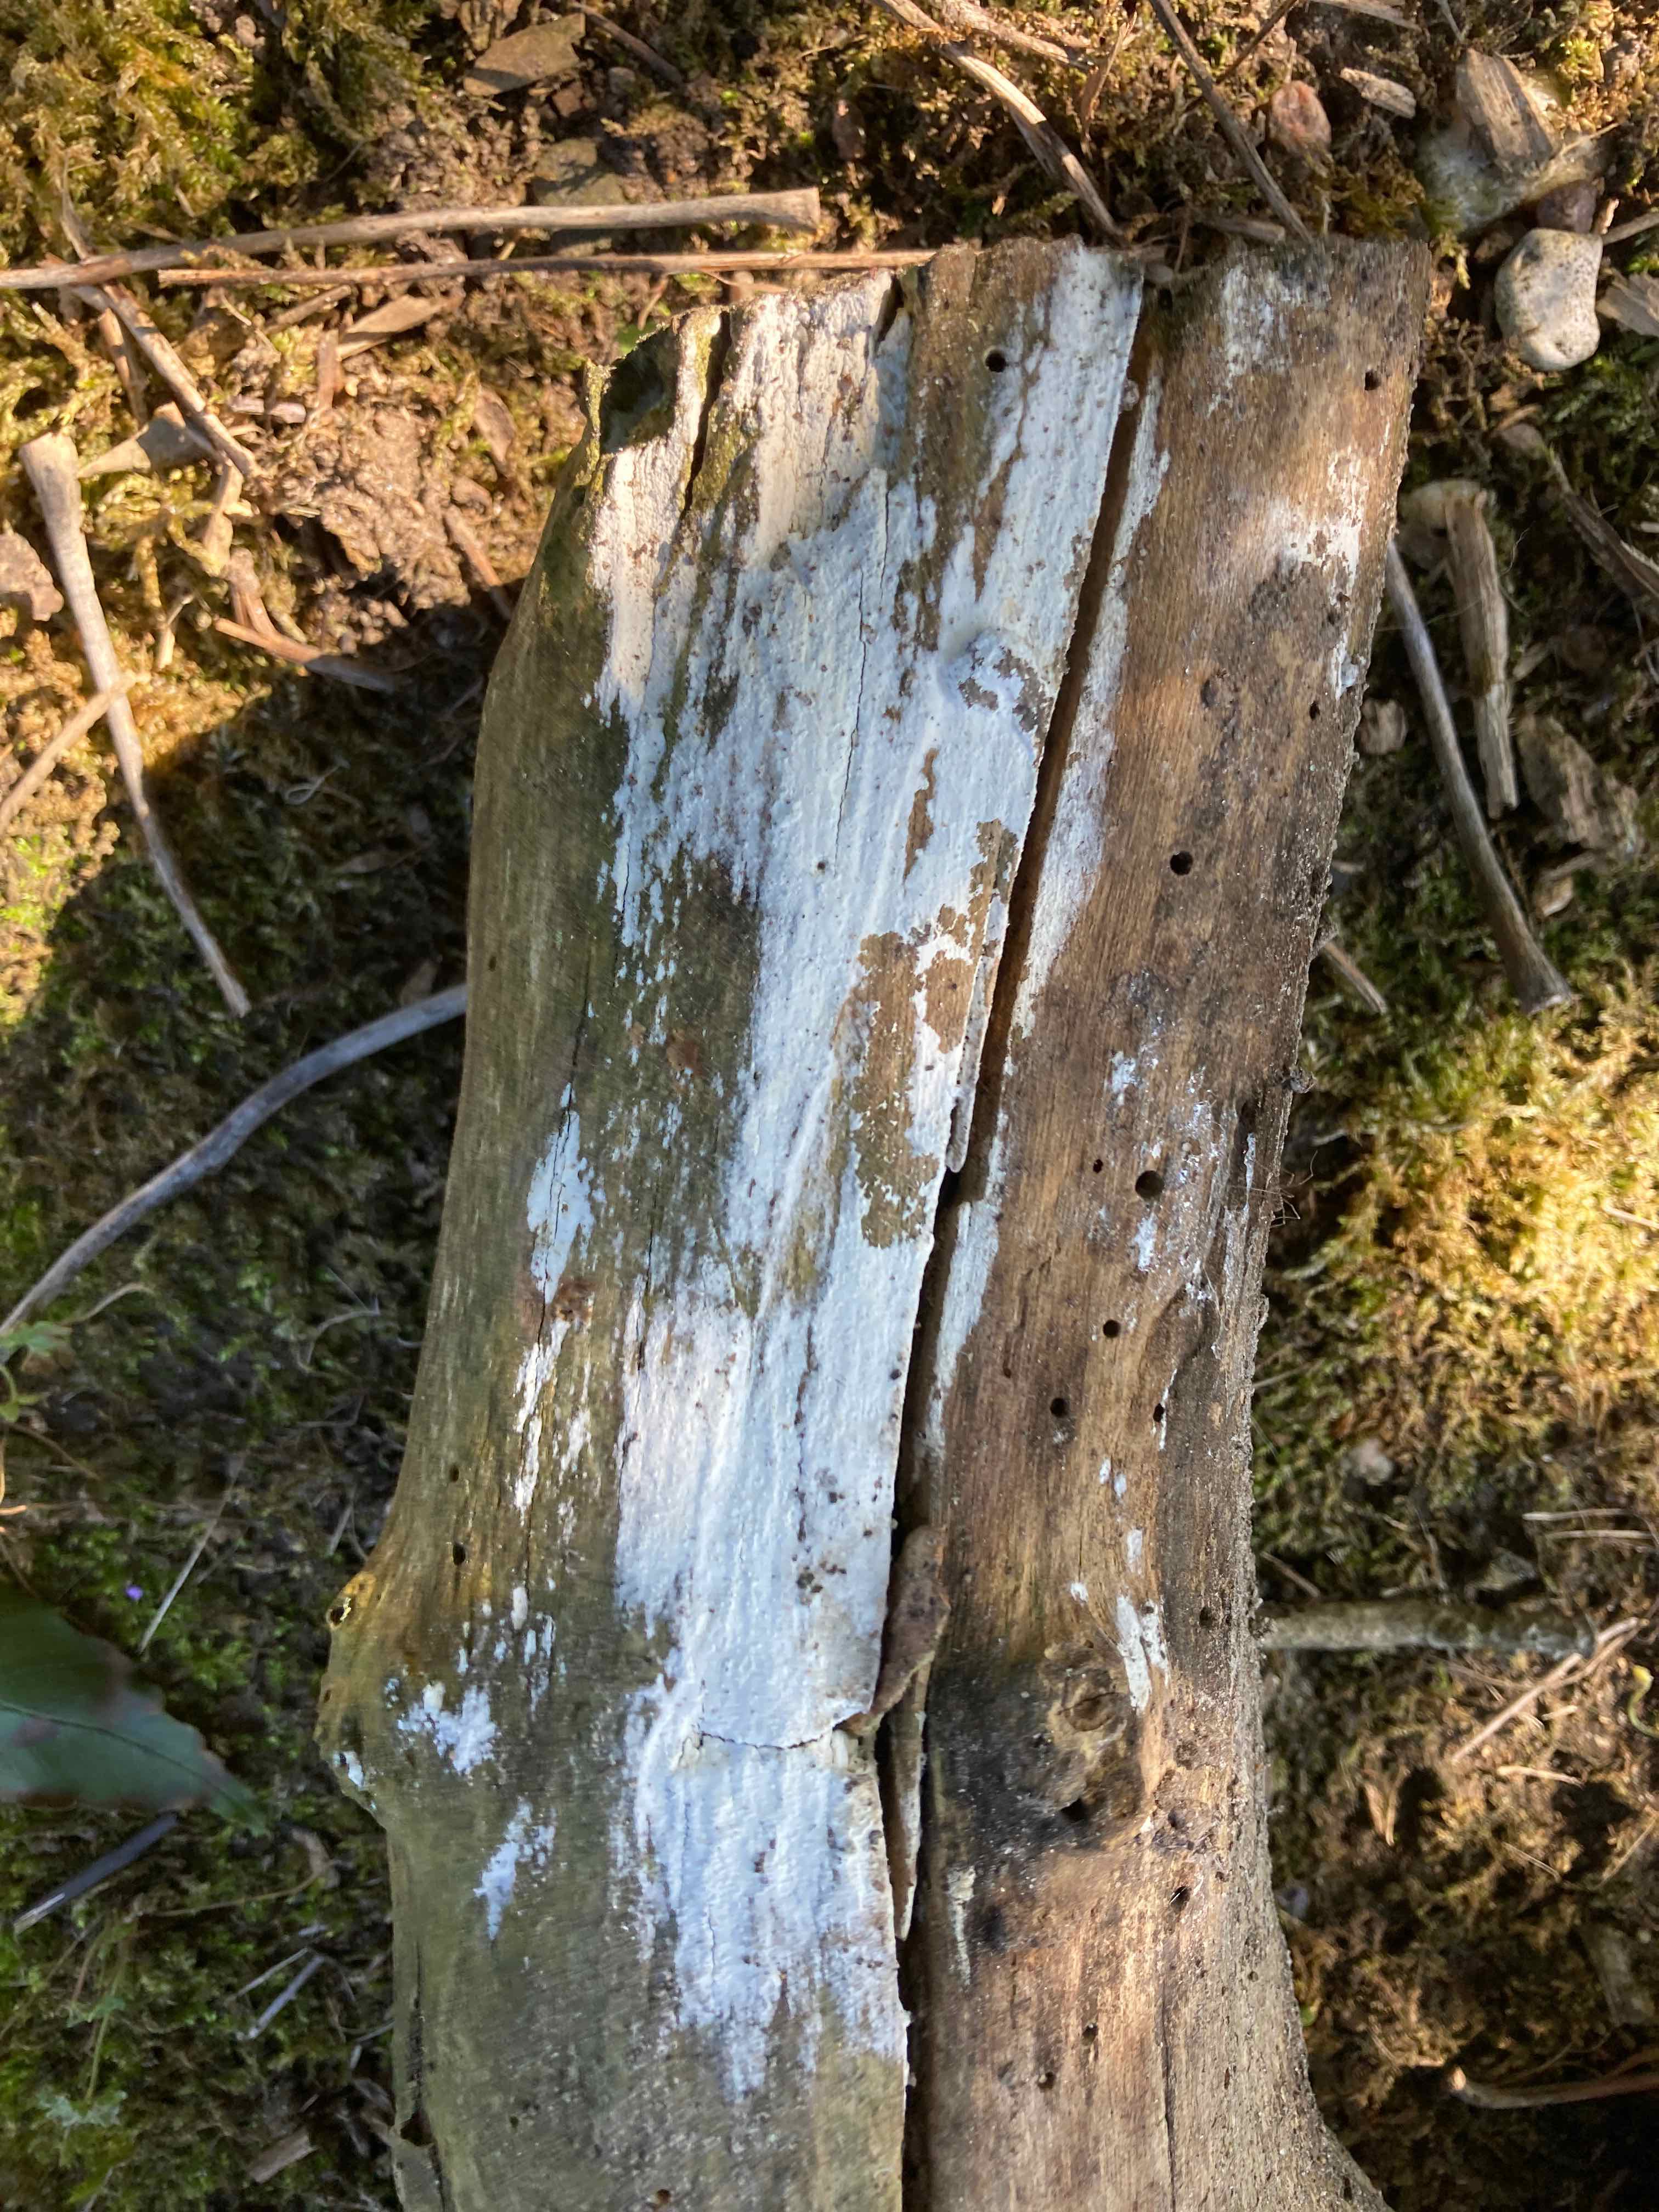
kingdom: Fungi
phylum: Basidiomycota
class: Agaricomycetes
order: Corticiales
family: Corticiaceae
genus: Lyomyces
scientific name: Lyomyces sambuci
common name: almindelig hyldehinde
